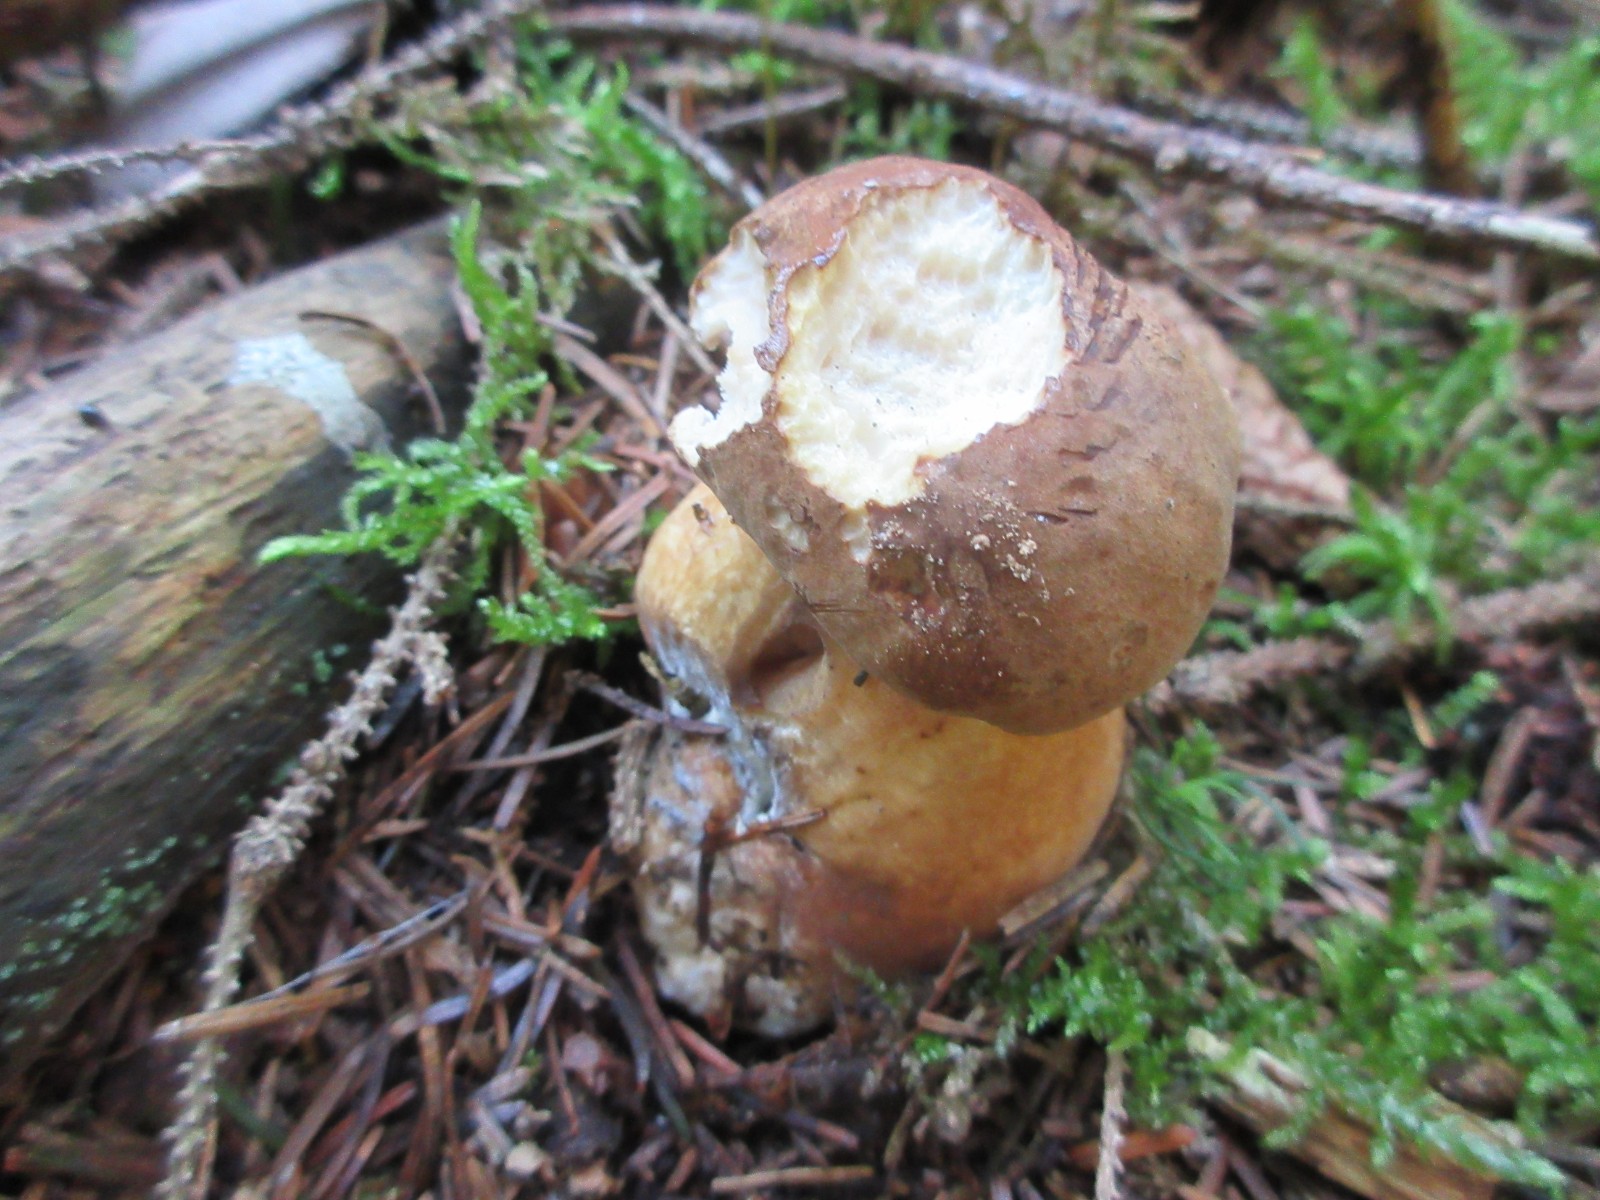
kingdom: Fungi
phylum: Basidiomycota
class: Agaricomycetes
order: Boletales
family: Boletaceae
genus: Imleria
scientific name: Imleria badia
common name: brunstokket rørhat
